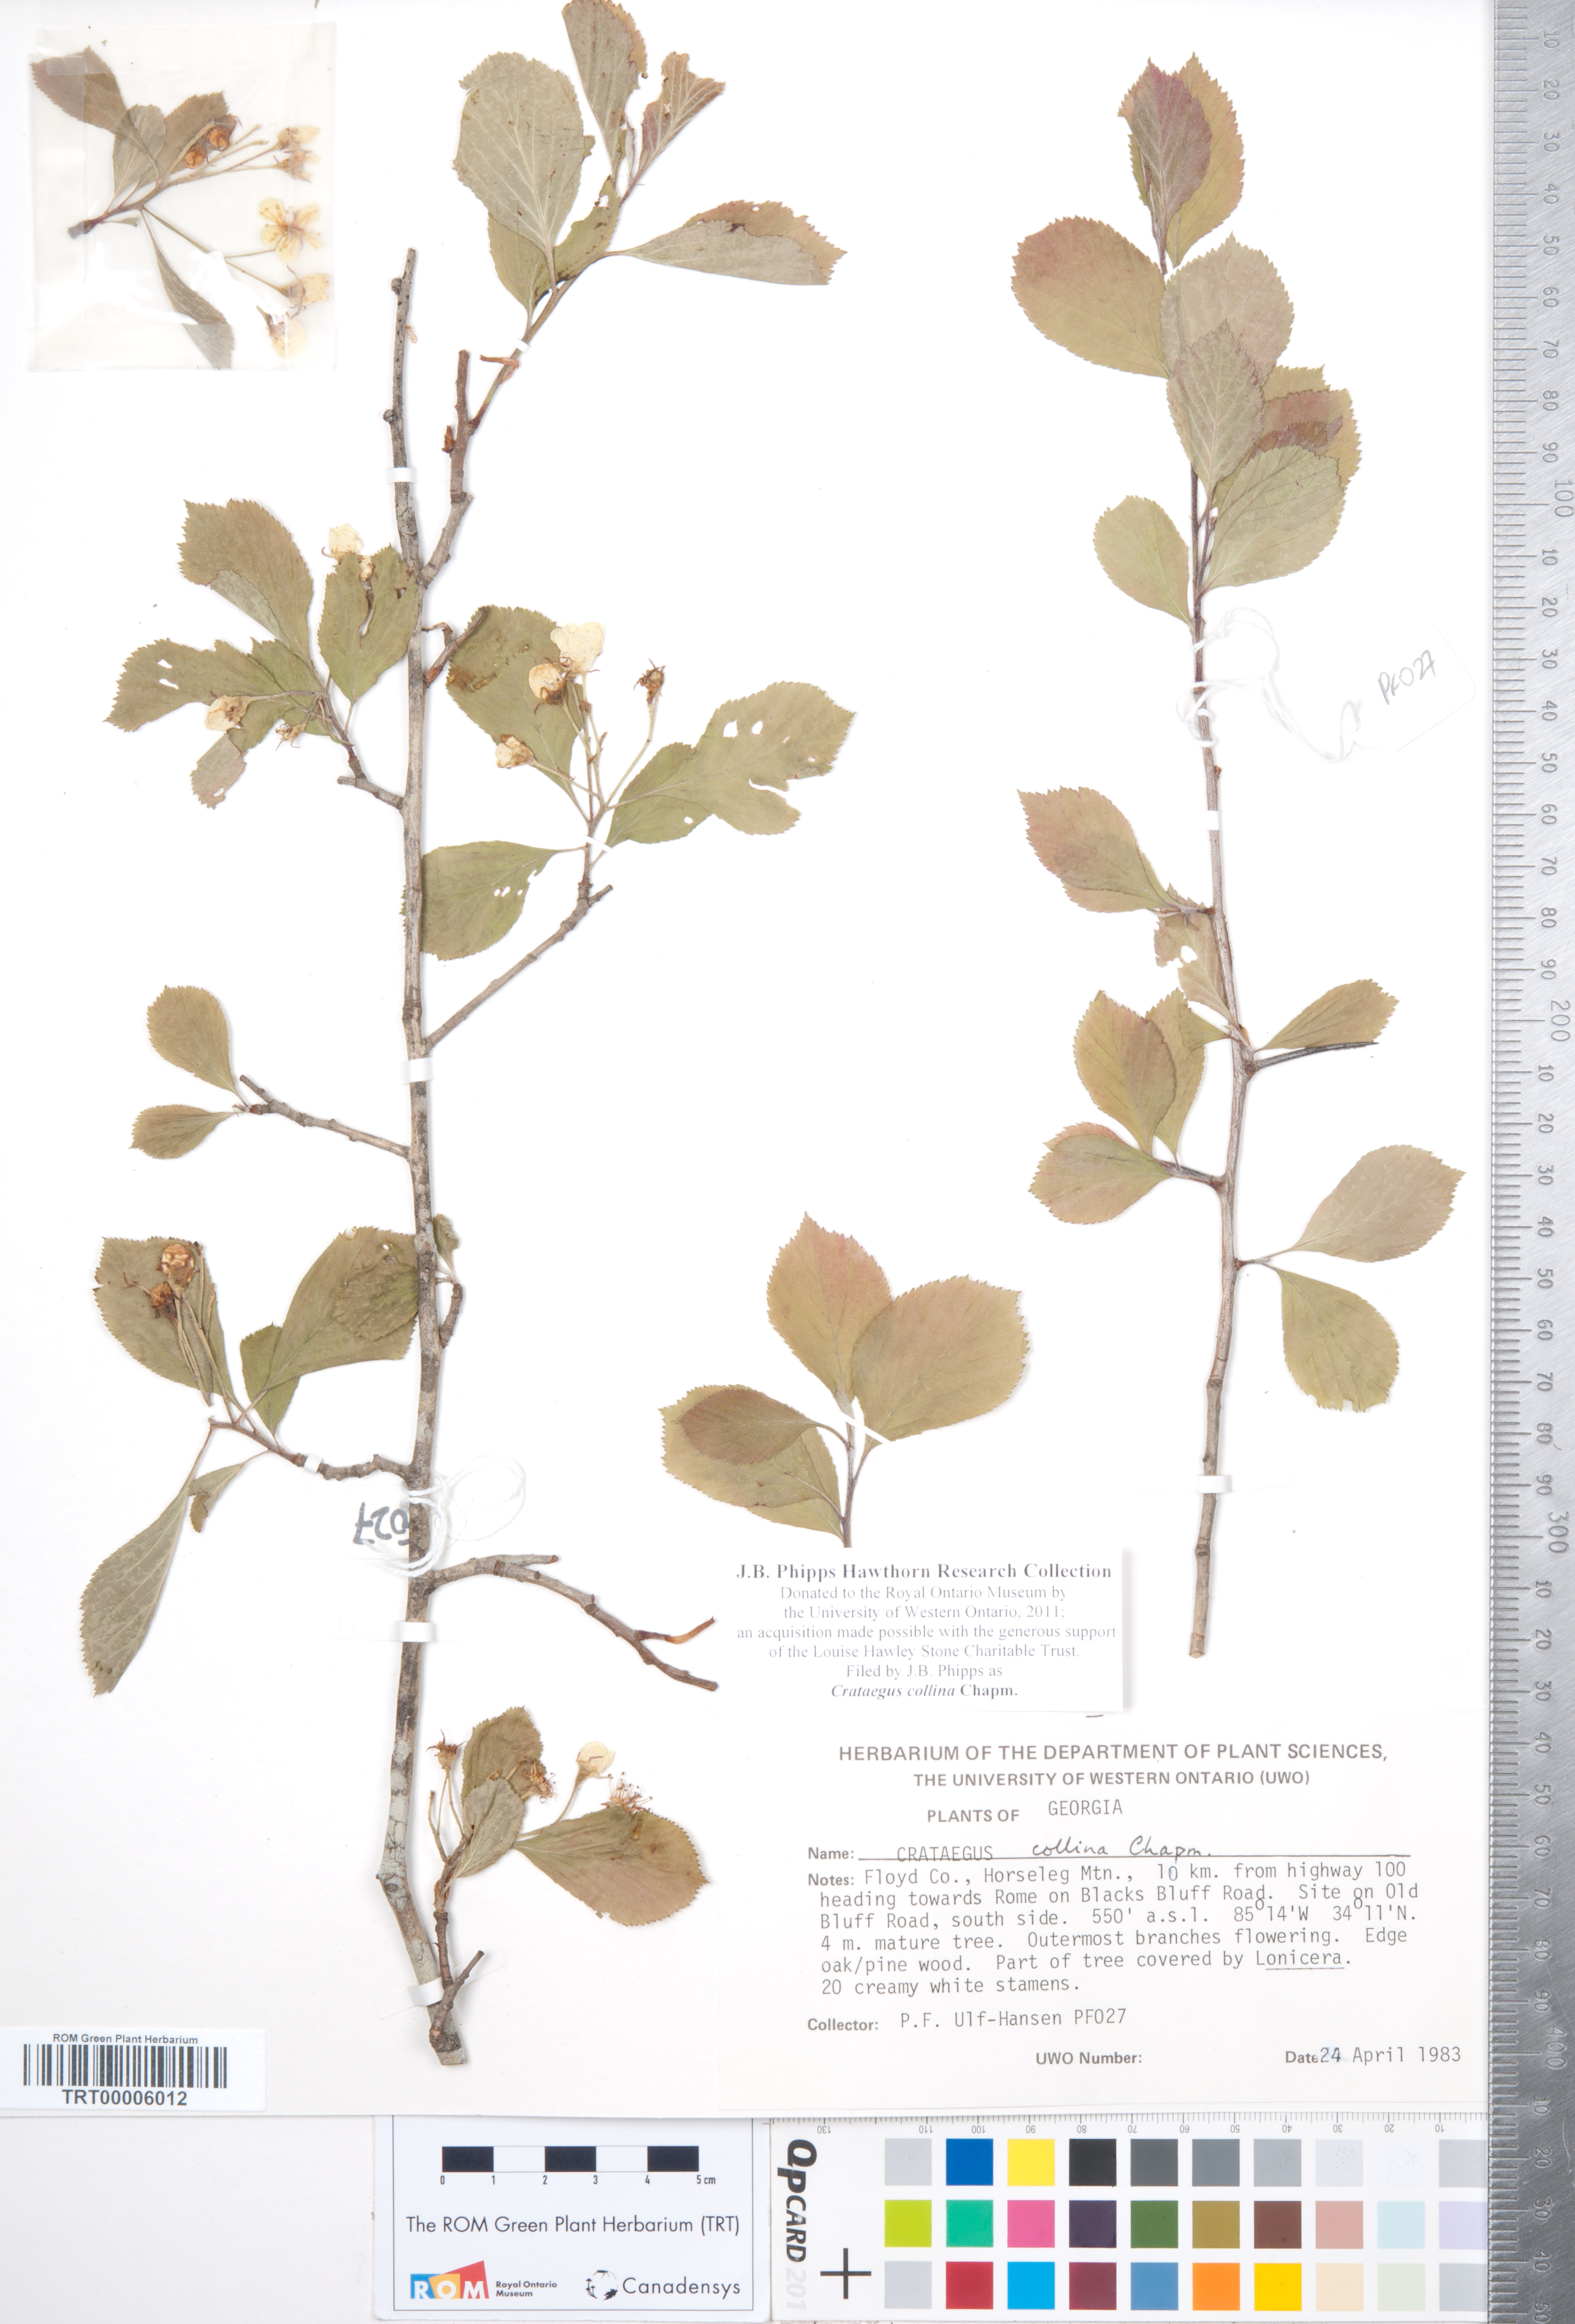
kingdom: Plantae
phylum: Tracheophyta
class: Magnoliopsida
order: Rosales
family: Rosaceae
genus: Crataegus
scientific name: Crataegus collina
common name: Hillside hawthorn
